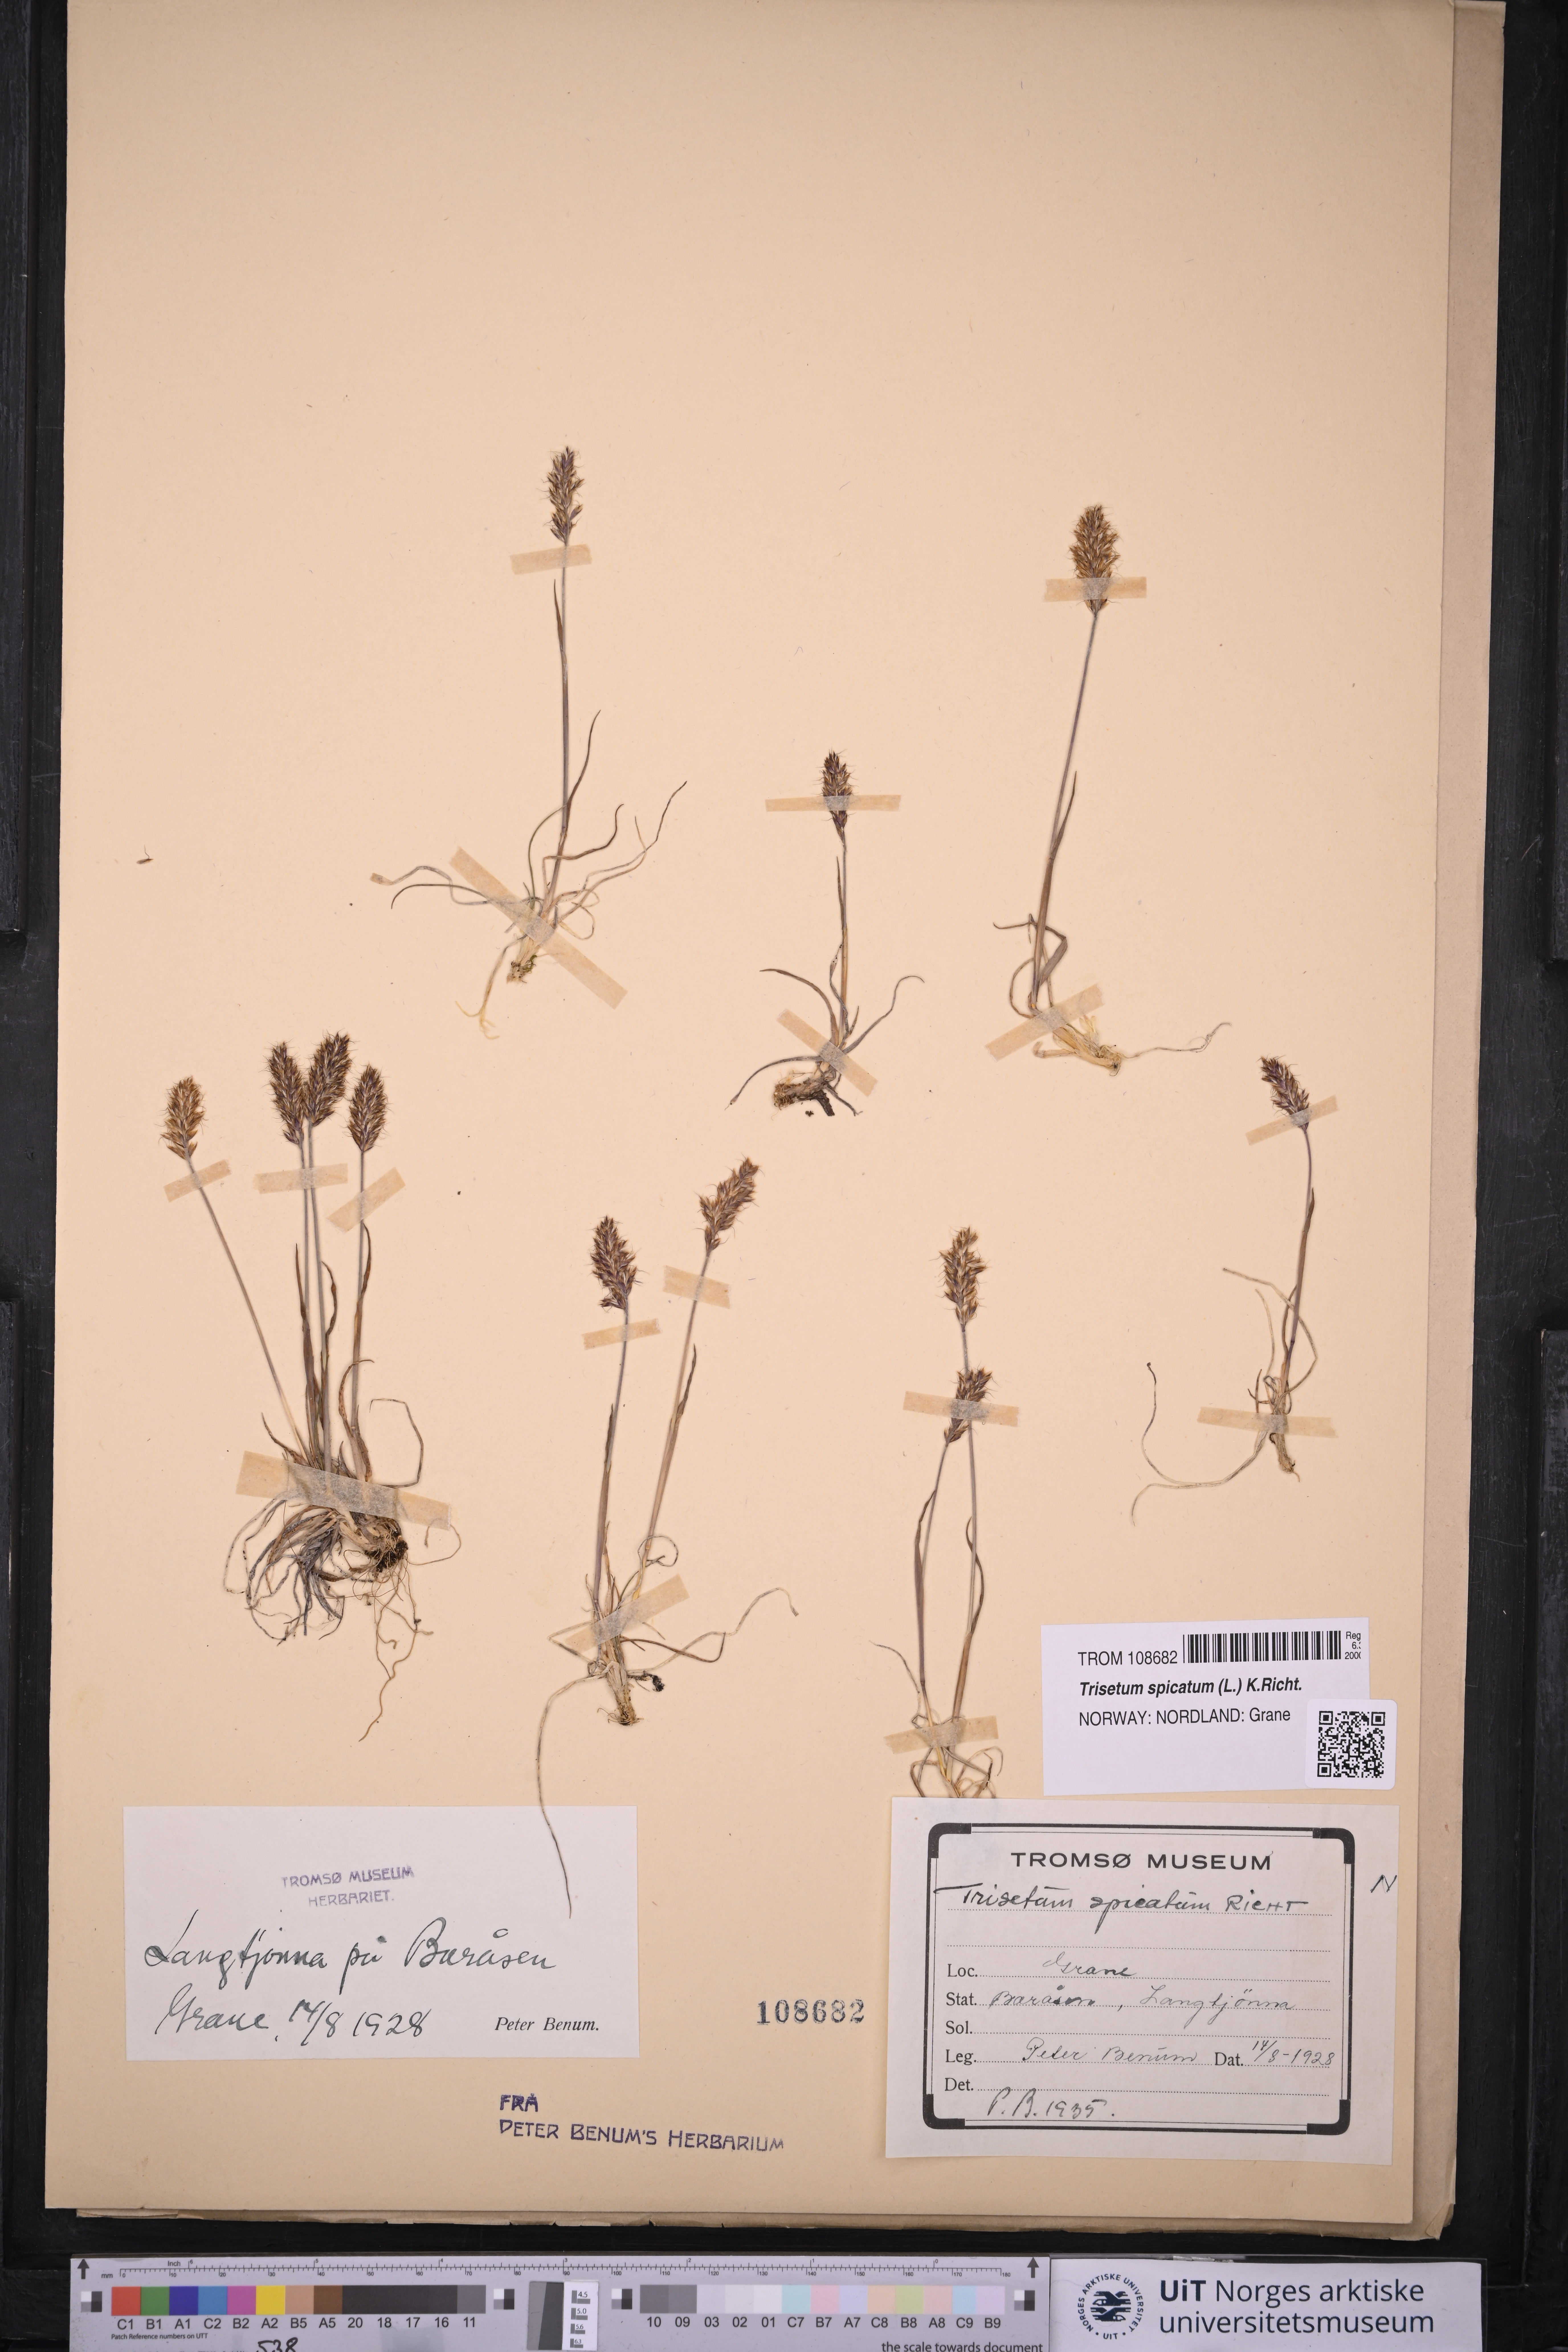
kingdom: Plantae
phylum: Tracheophyta
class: Liliopsida
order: Poales
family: Poaceae
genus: Koeleria
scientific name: Koeleria spicata
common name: Mountain trisetum
